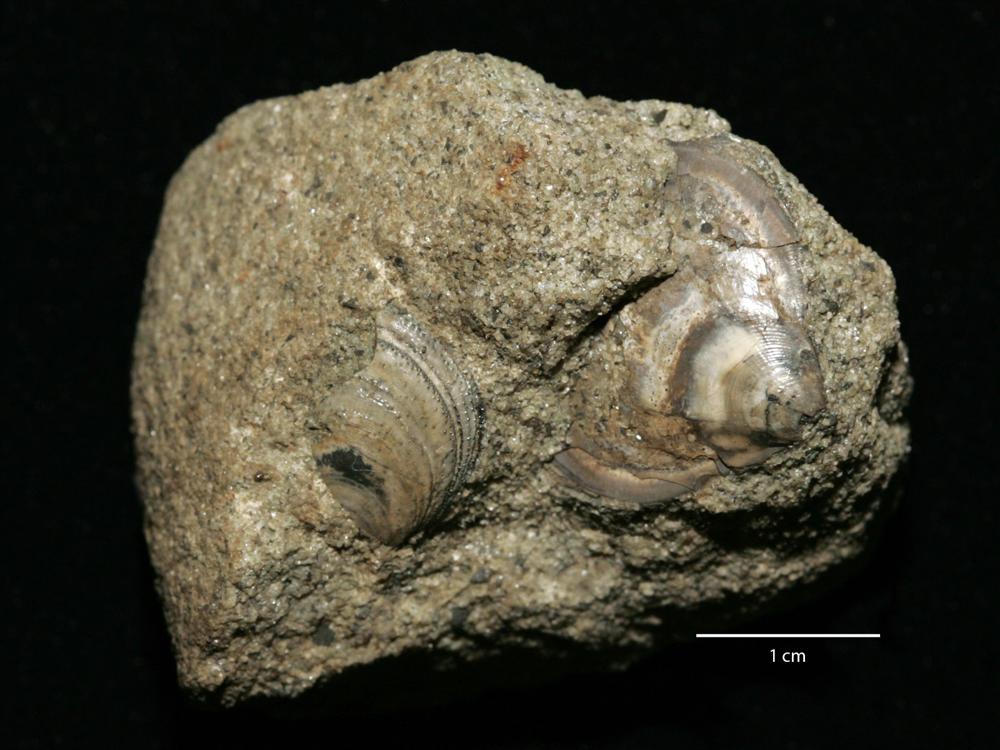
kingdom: Animalia
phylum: Brachiopoda
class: Lingulata
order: Lingulida
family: Zhanatellidae
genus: Thysanotos
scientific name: Thysanotos
